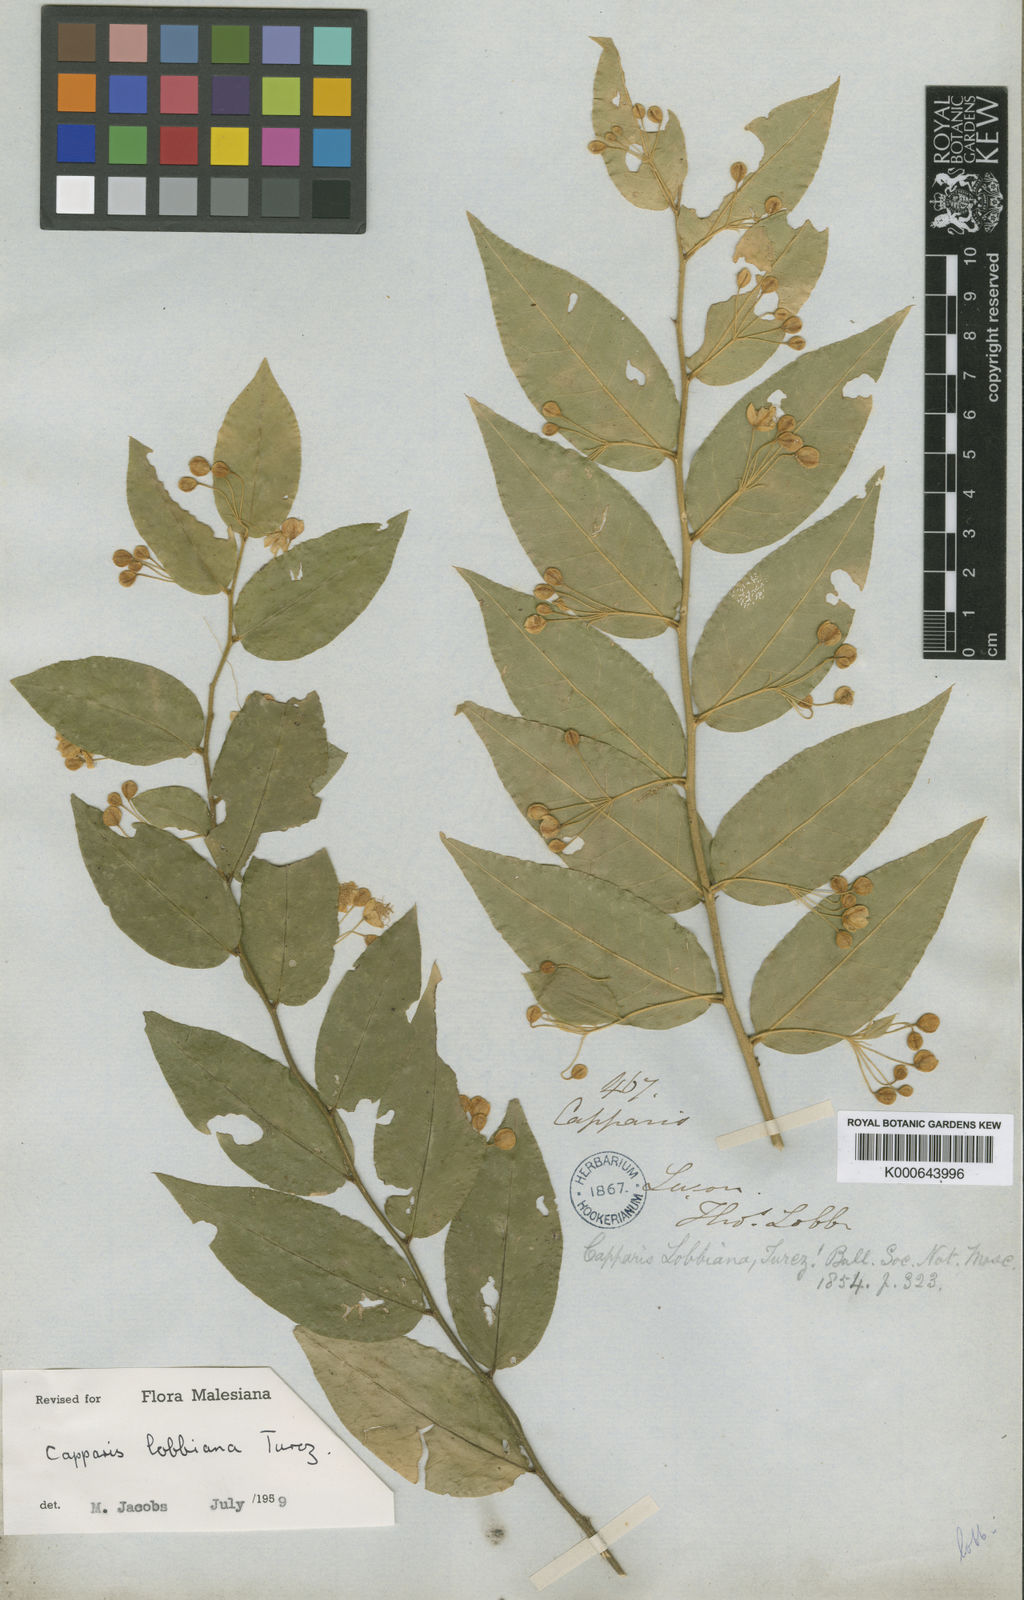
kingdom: Plantae
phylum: Tracheophyta
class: Magnoliopsida
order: Brassicales
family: Capparaceae
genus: Capparis
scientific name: Capparis lobbiana
